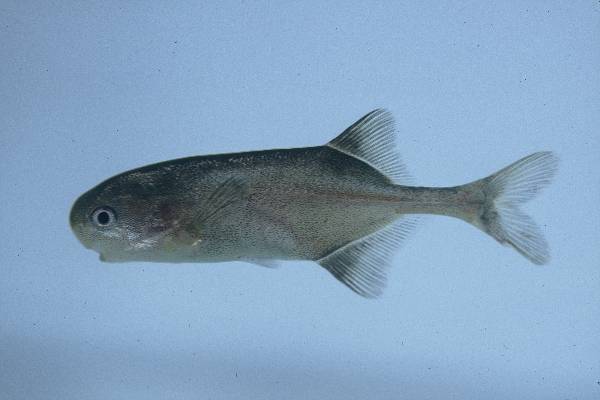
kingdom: Animalia
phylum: Chordata
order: Osteoglossiformes
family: Mormyridae
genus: Petrocephalus
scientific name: Petrocephalus catostoma
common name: Churchill
